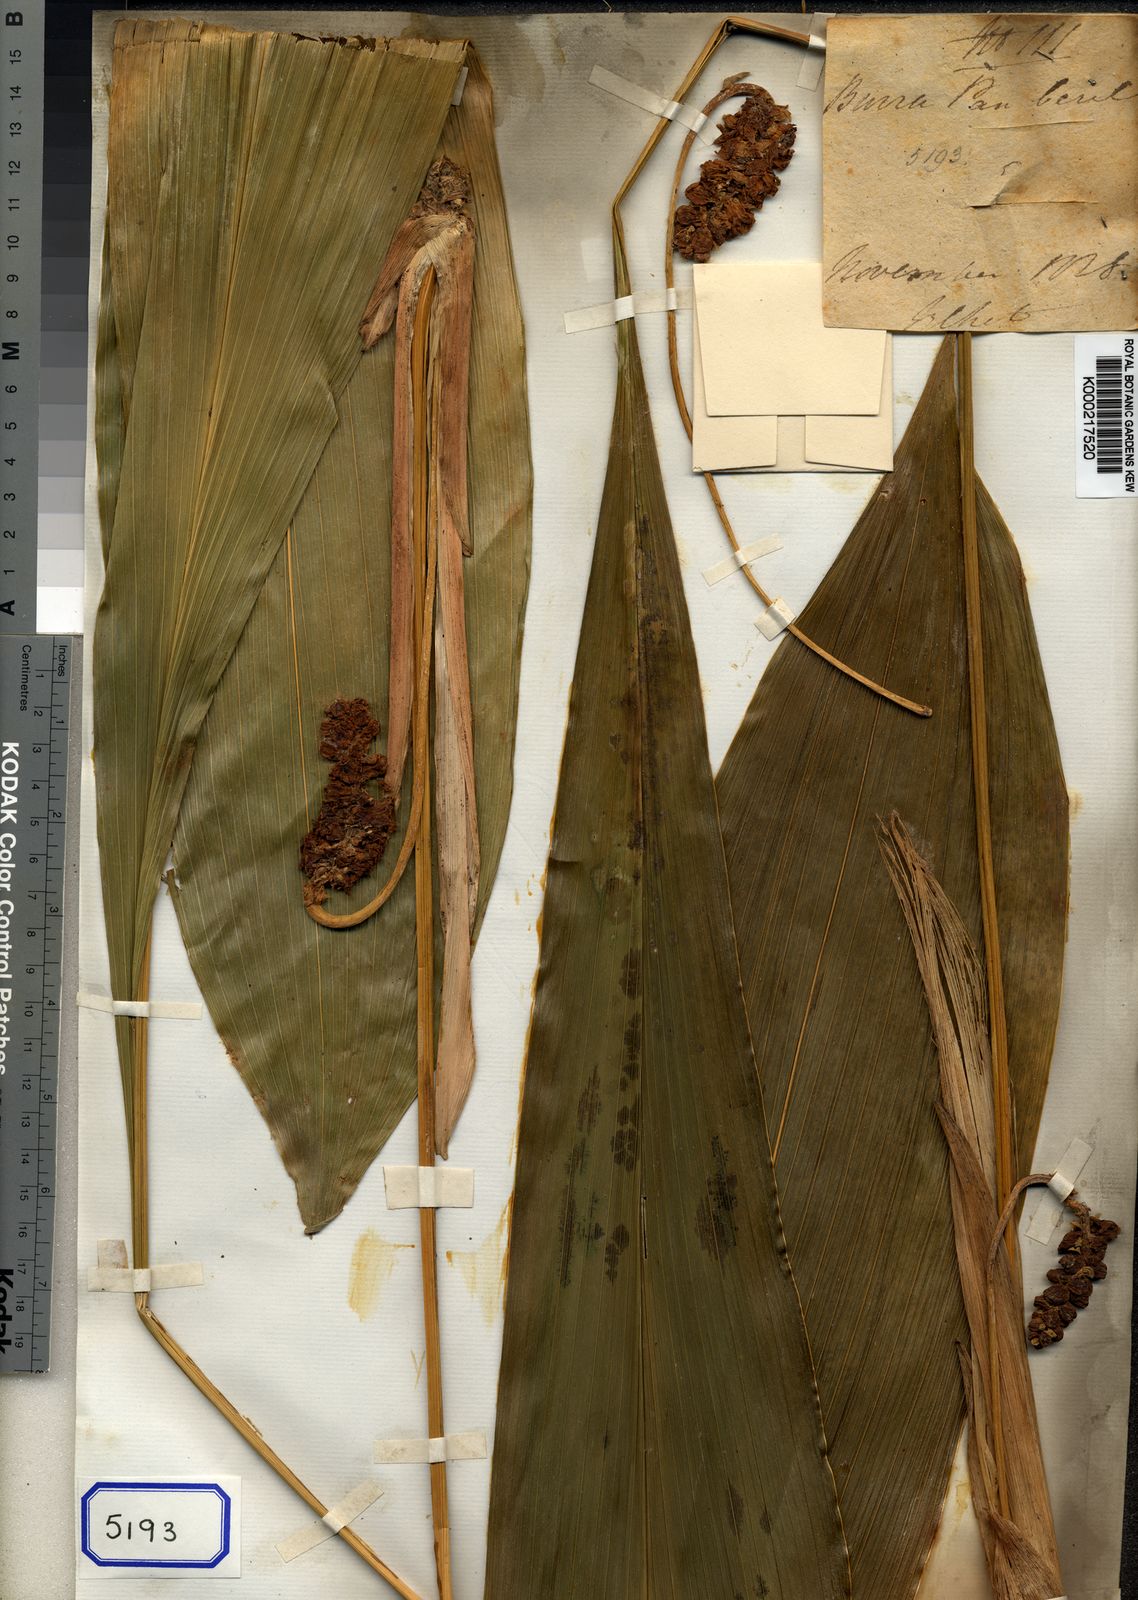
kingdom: Plantae
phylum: Tracheophyta
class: Liliopsida
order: Asparagales
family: Asparagaceae
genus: Tupistra
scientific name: Tupistra
